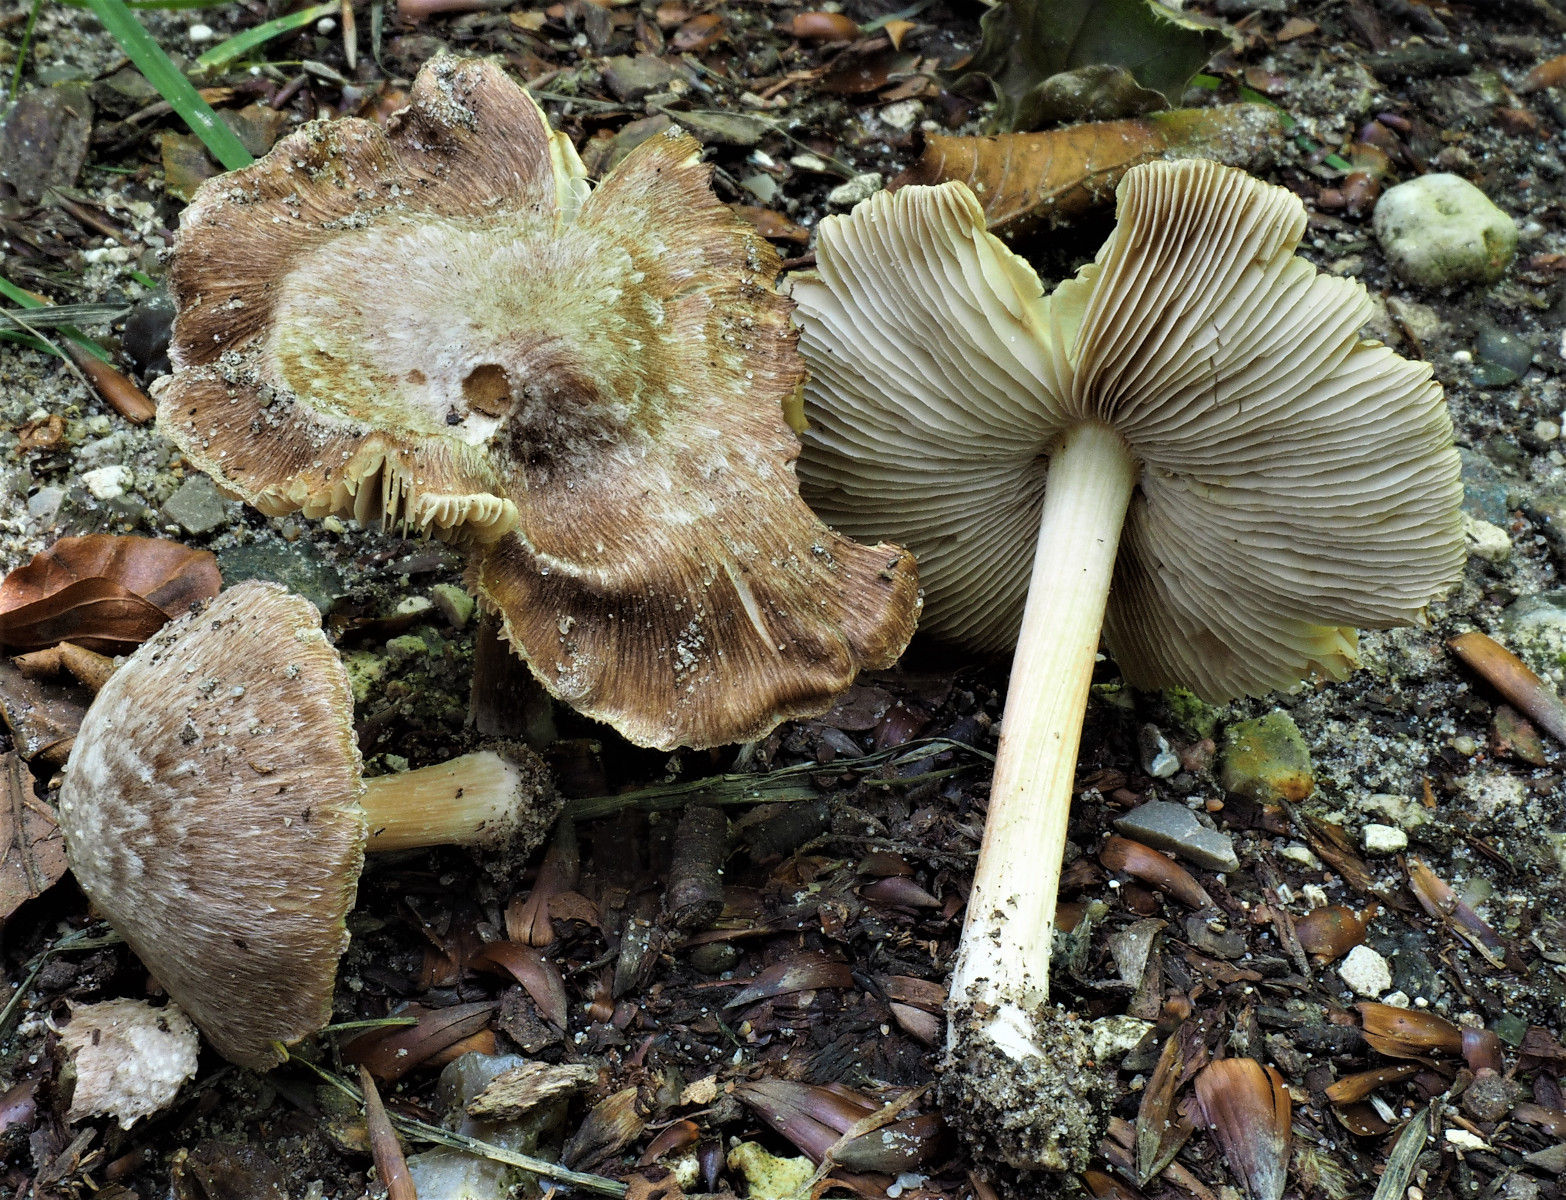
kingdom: Fungi
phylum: Basidiomycota
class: Agaricomycetes
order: Agaricales
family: Inocybaceae
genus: Inosperma
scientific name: Inosperma
